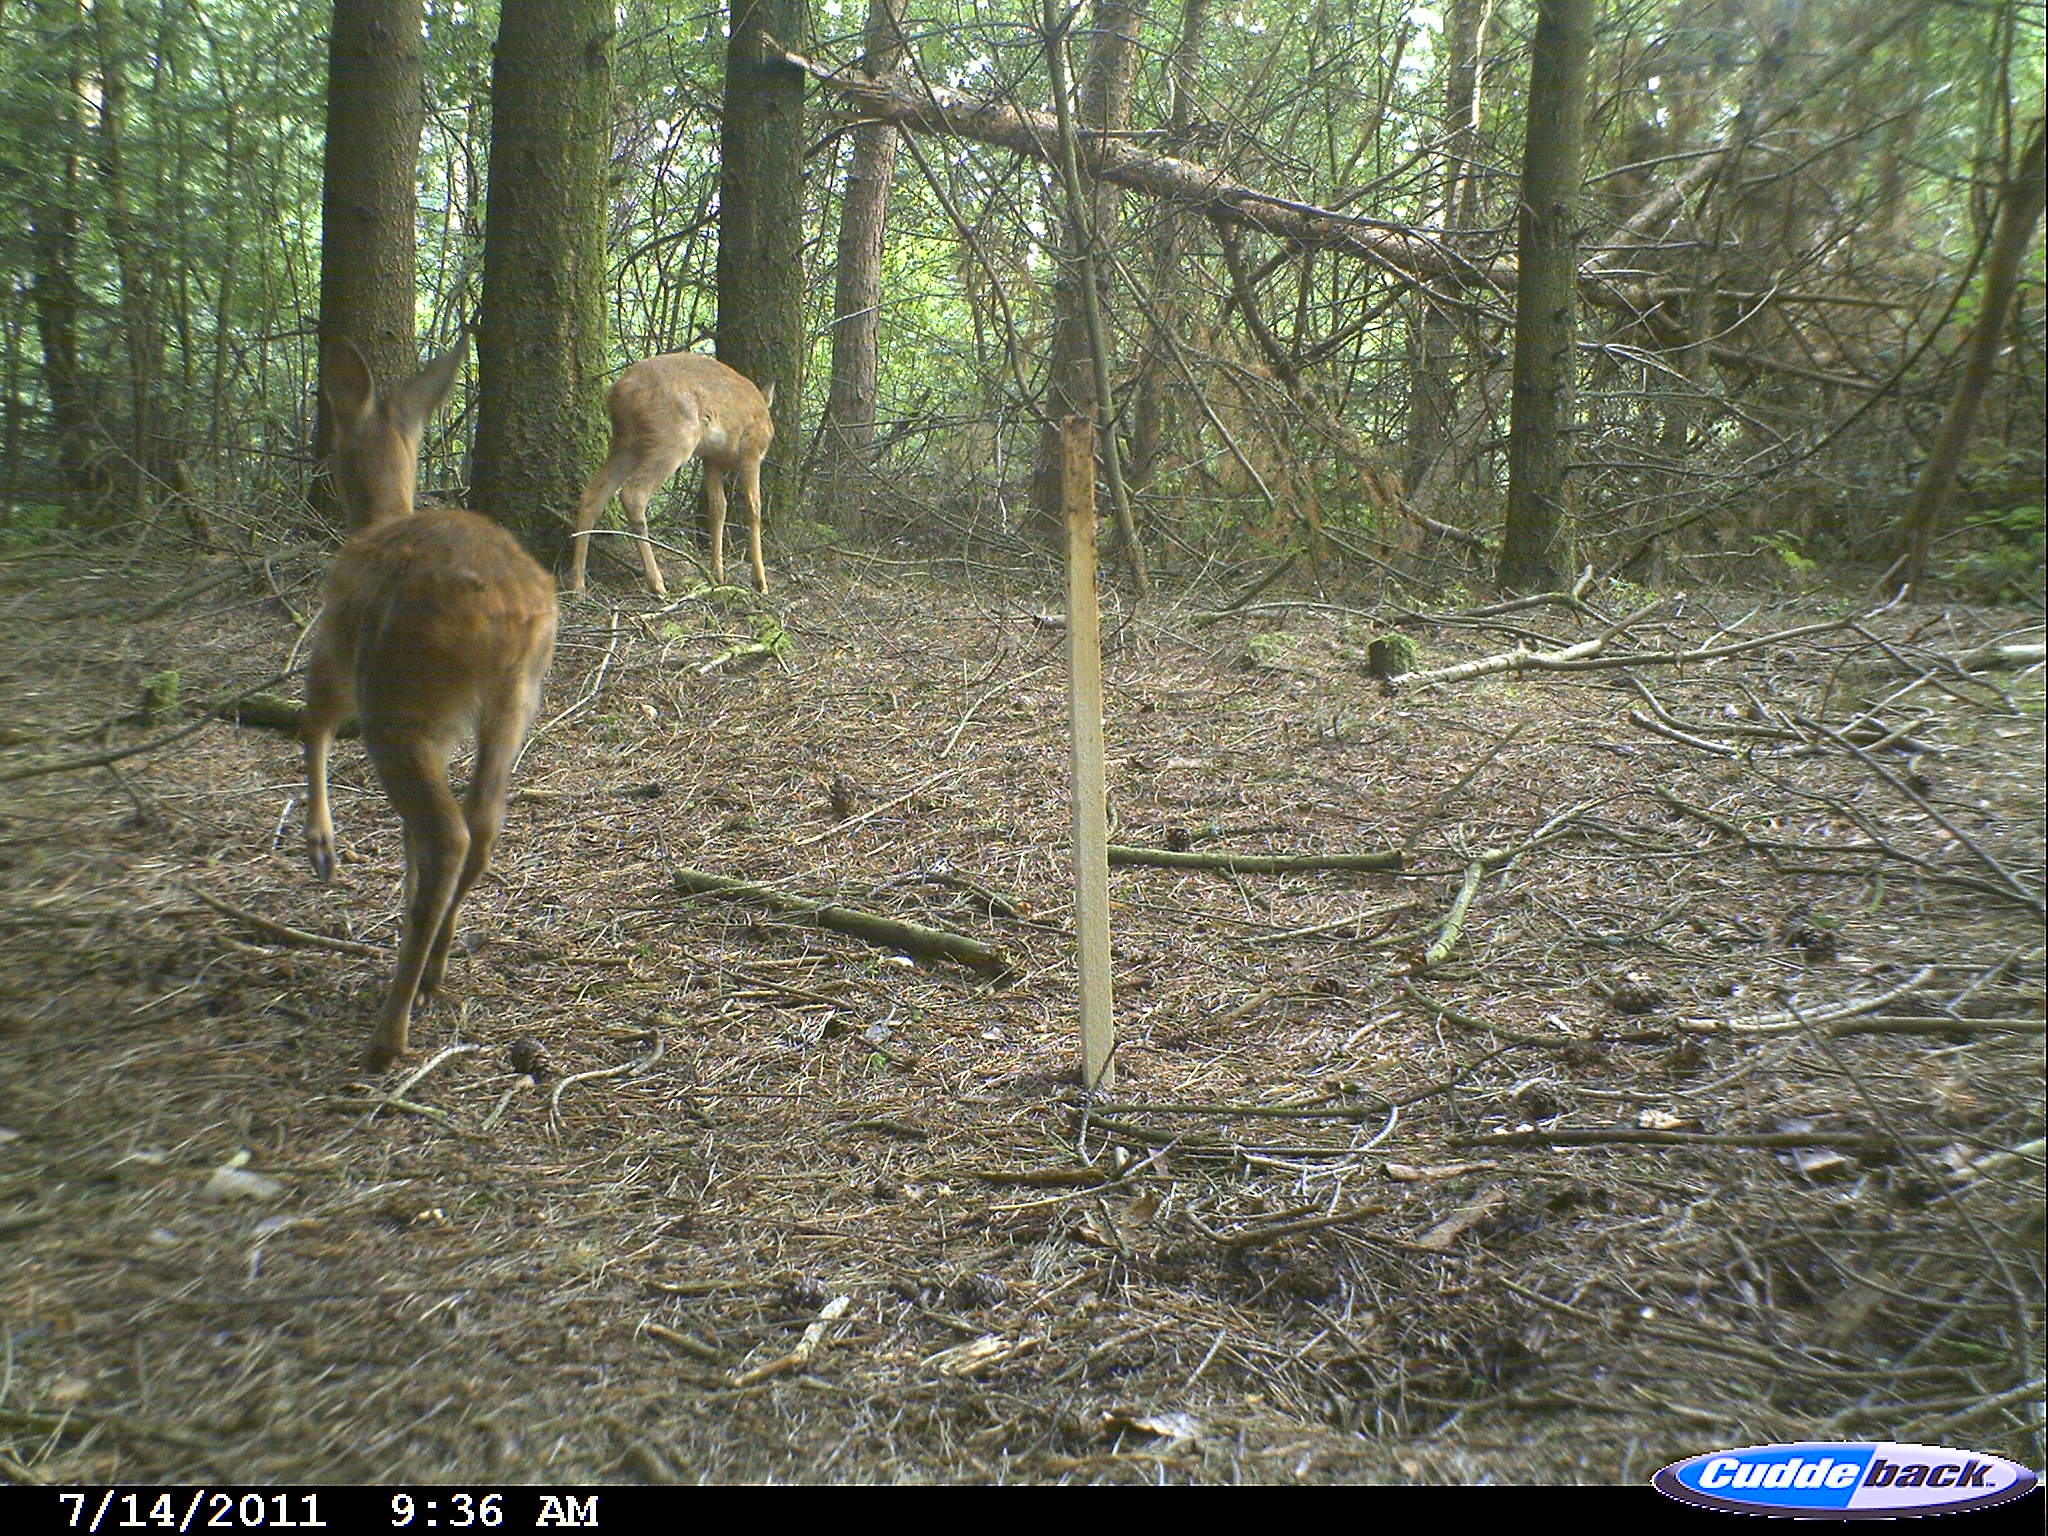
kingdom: Animalia
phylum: Chordata
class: Mammalia
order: Artiodactyla
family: Cervidae
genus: Capreolus
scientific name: Capreolus capreolus
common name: Western roe deer
